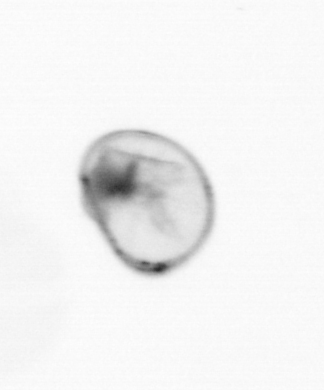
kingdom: Chromista
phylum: Myzozoa
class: Dinophyceae
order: Noctilucales
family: Noctilucaceae
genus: Noctiluca
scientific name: Noctiluca scintillans
